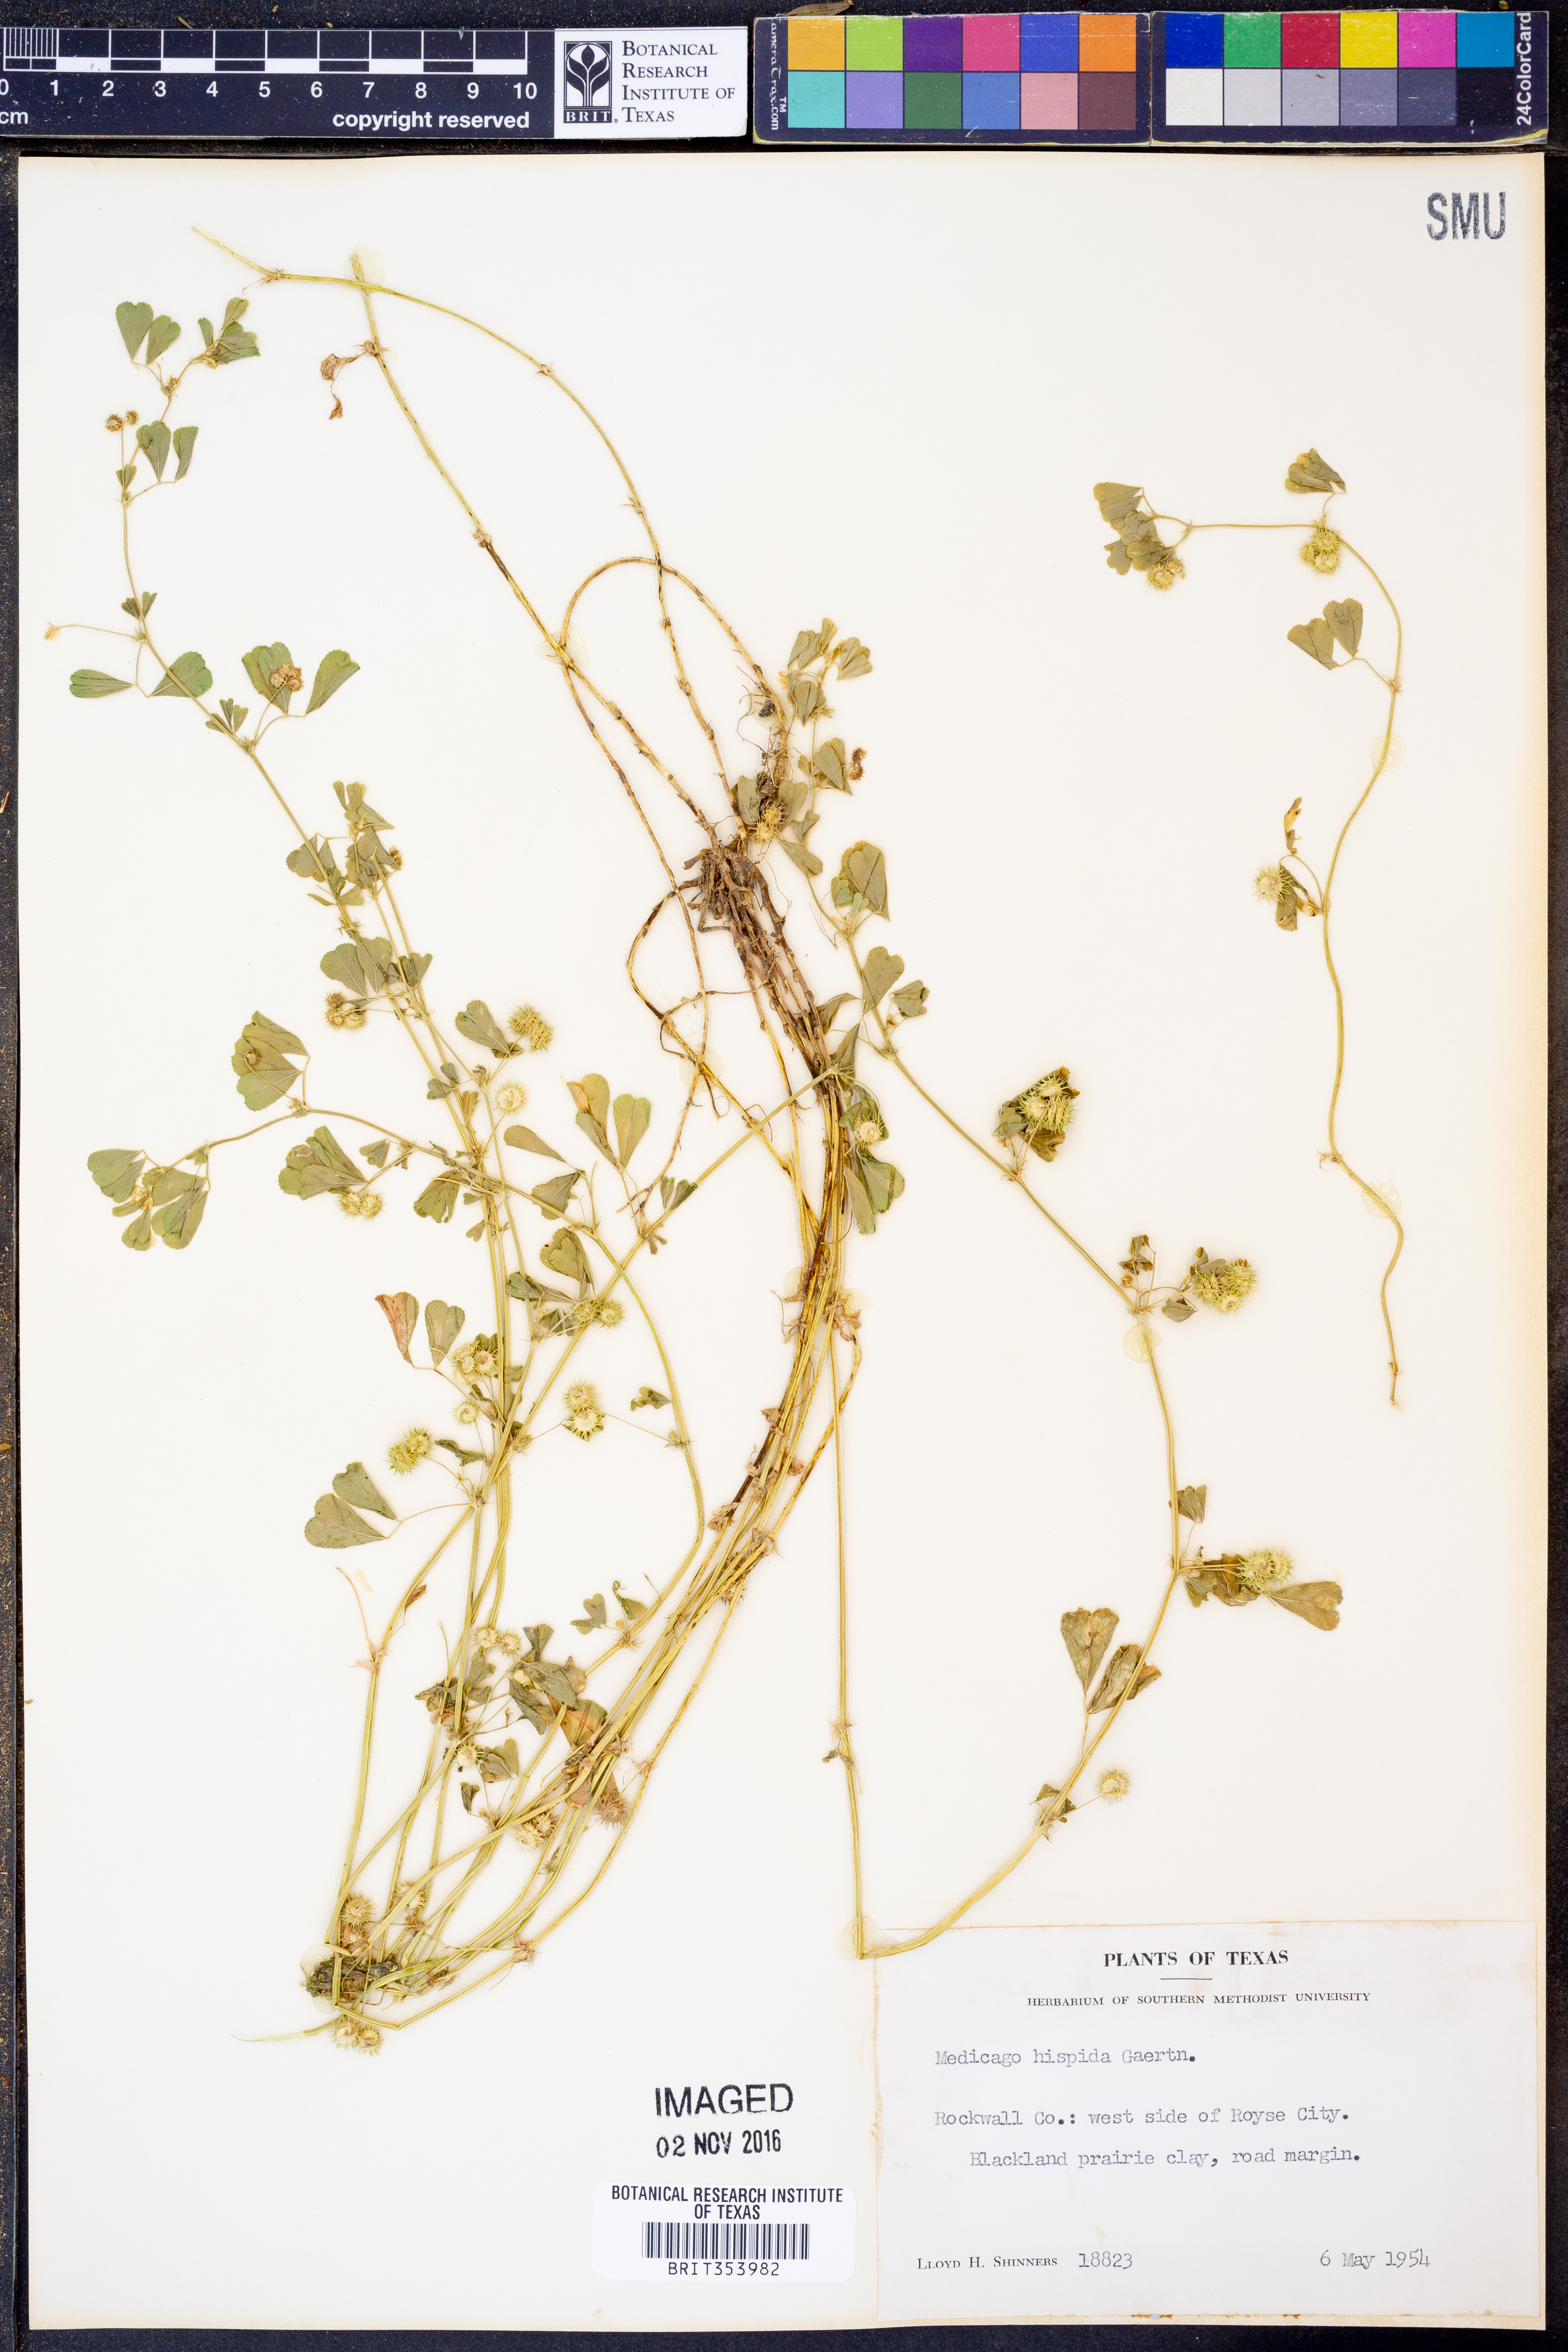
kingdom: Plantae
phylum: Tracheophyta
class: Magnoliopsida
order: Fabales
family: Fabaceae
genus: Medicago
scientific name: Medicago polymorpha
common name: Burclover
